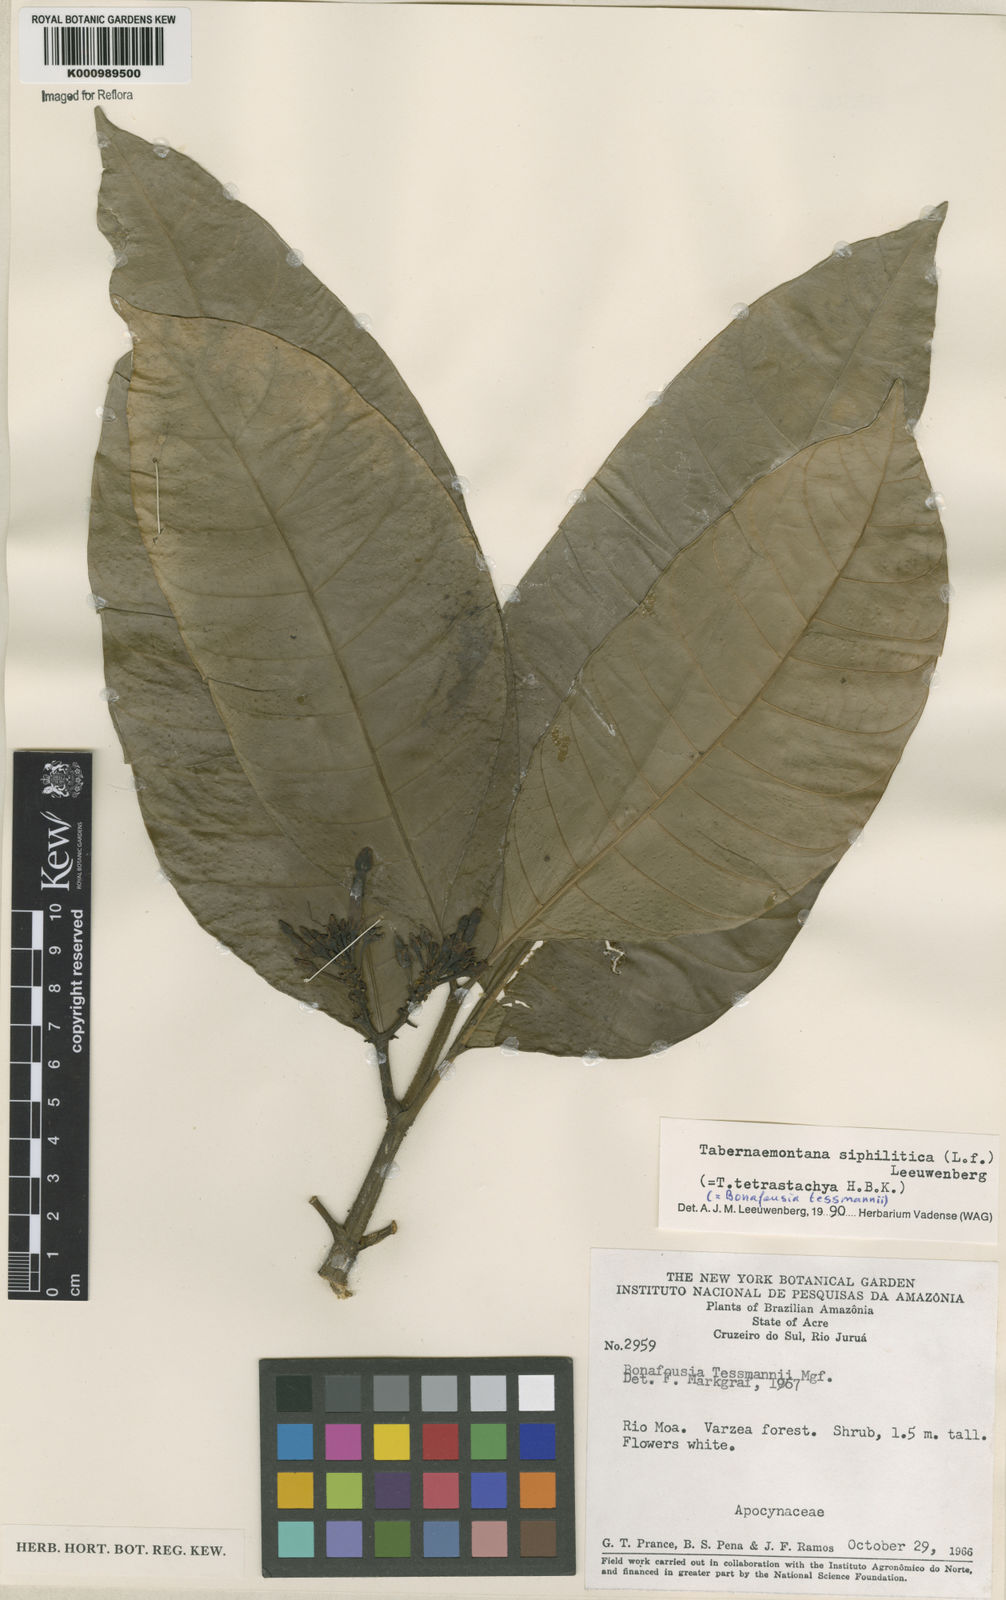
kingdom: Plantae
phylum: Tracheophyta
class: Magnoliopsida
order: Gentianales
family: Apocynaceae
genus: Tabernaemontana
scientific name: Tabernaemontana siphilitica
